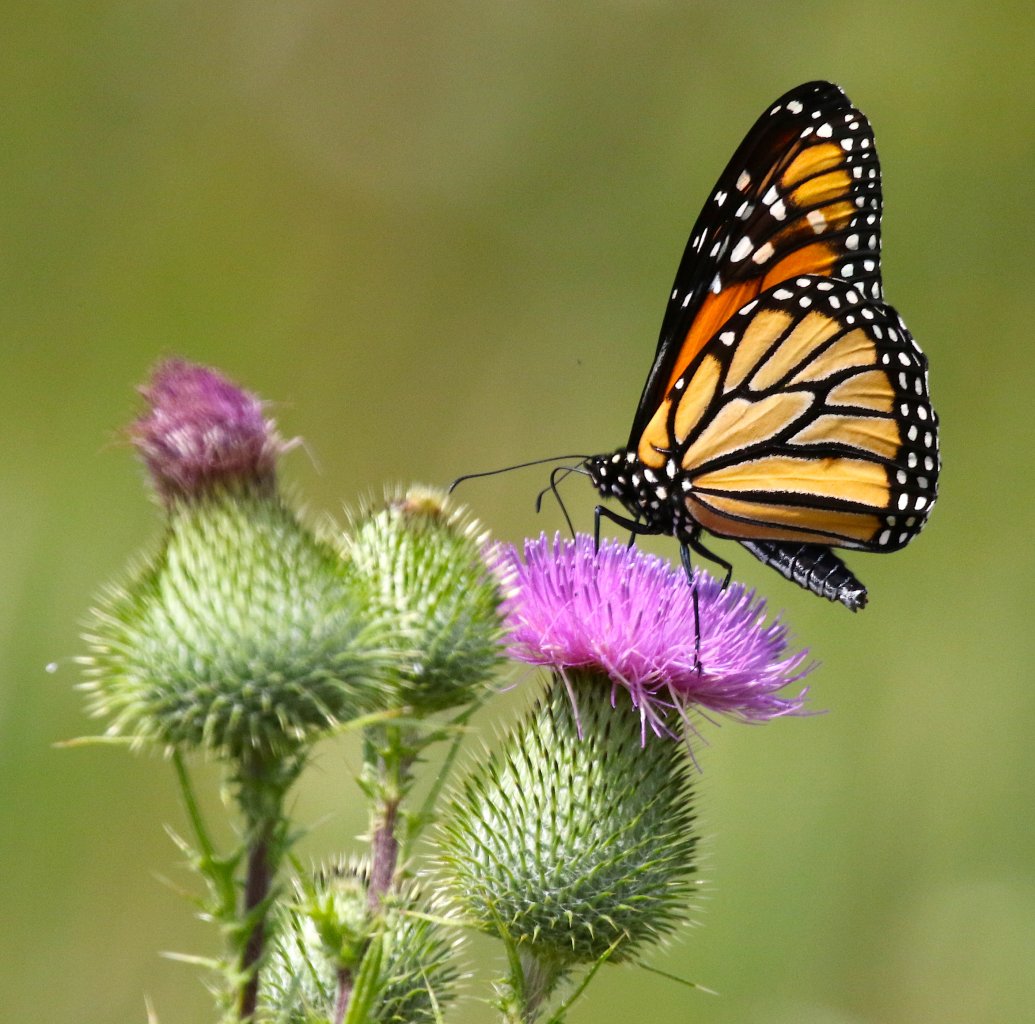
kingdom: Animalia
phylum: Arthropoda
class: Insecta
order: Lepidoptera
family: Nymphalidae
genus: Danaus
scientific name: Danaus plexippus
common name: Monarch
